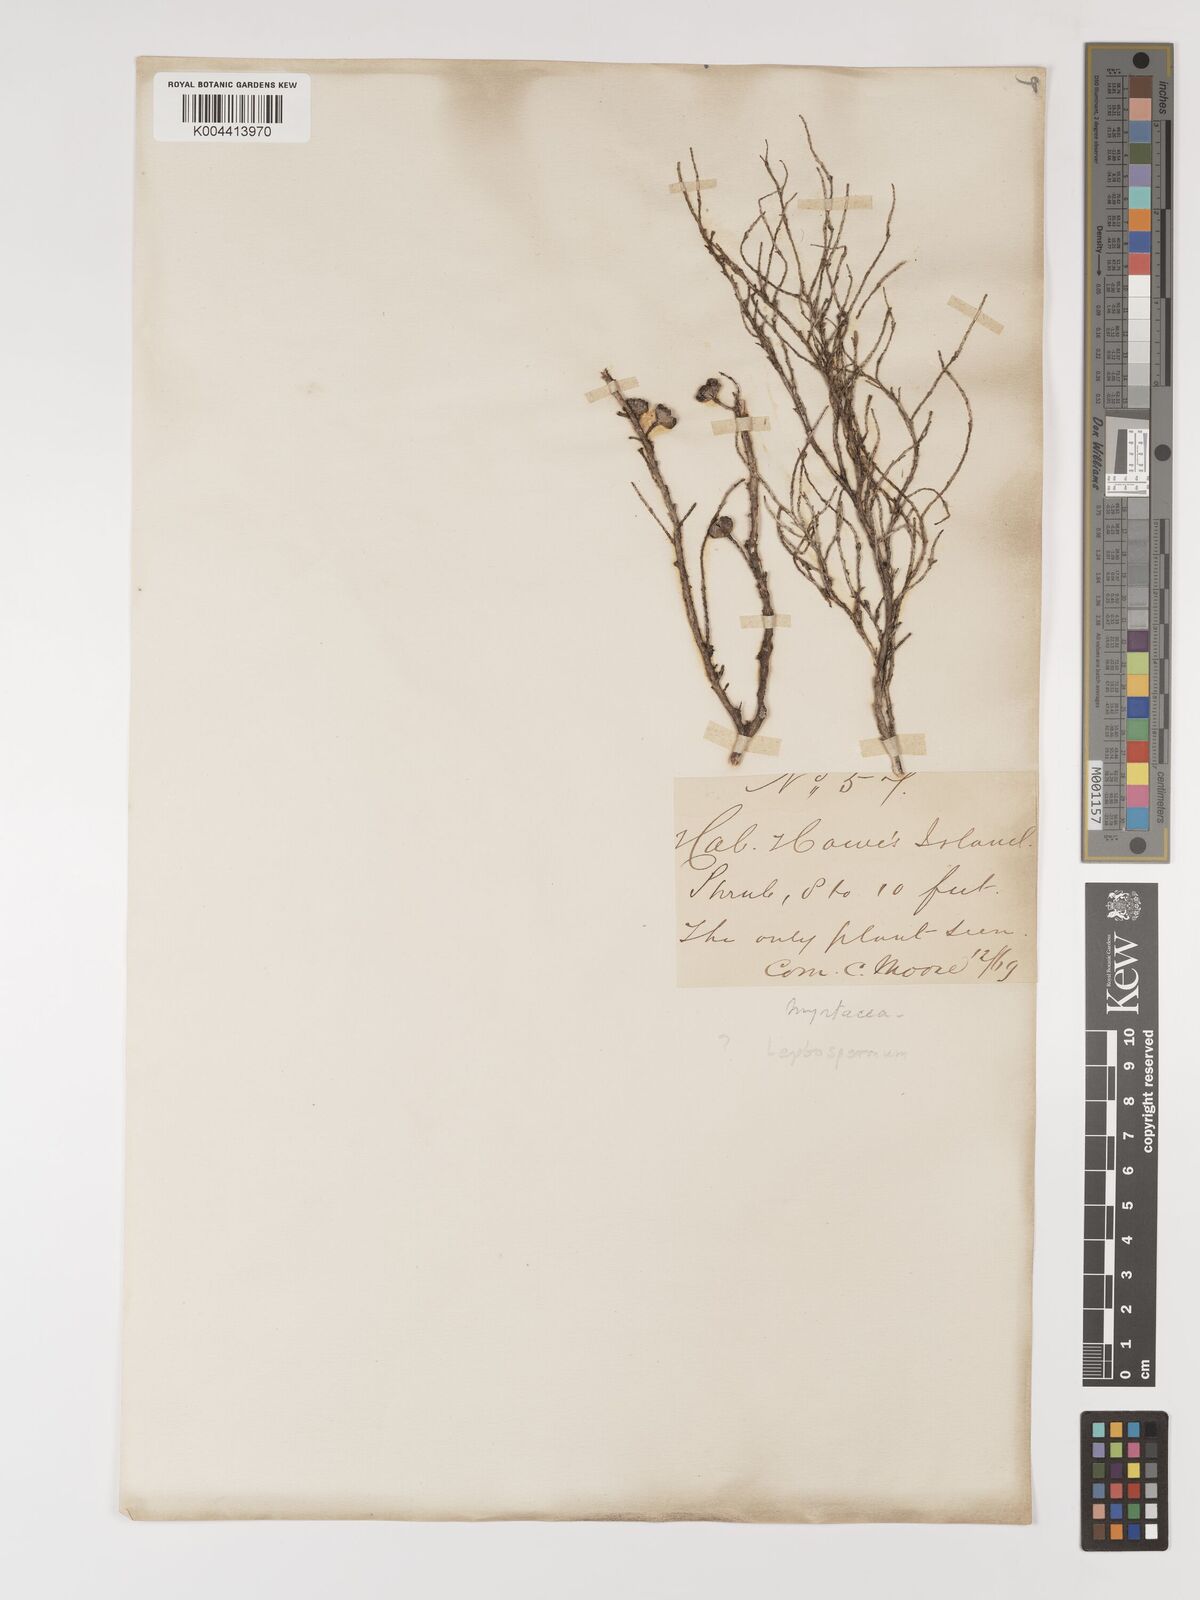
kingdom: Plantae
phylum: Tracheophyta
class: Magnoliopsida
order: Myrtales
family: Myrtaceae
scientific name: Myrtaceae
